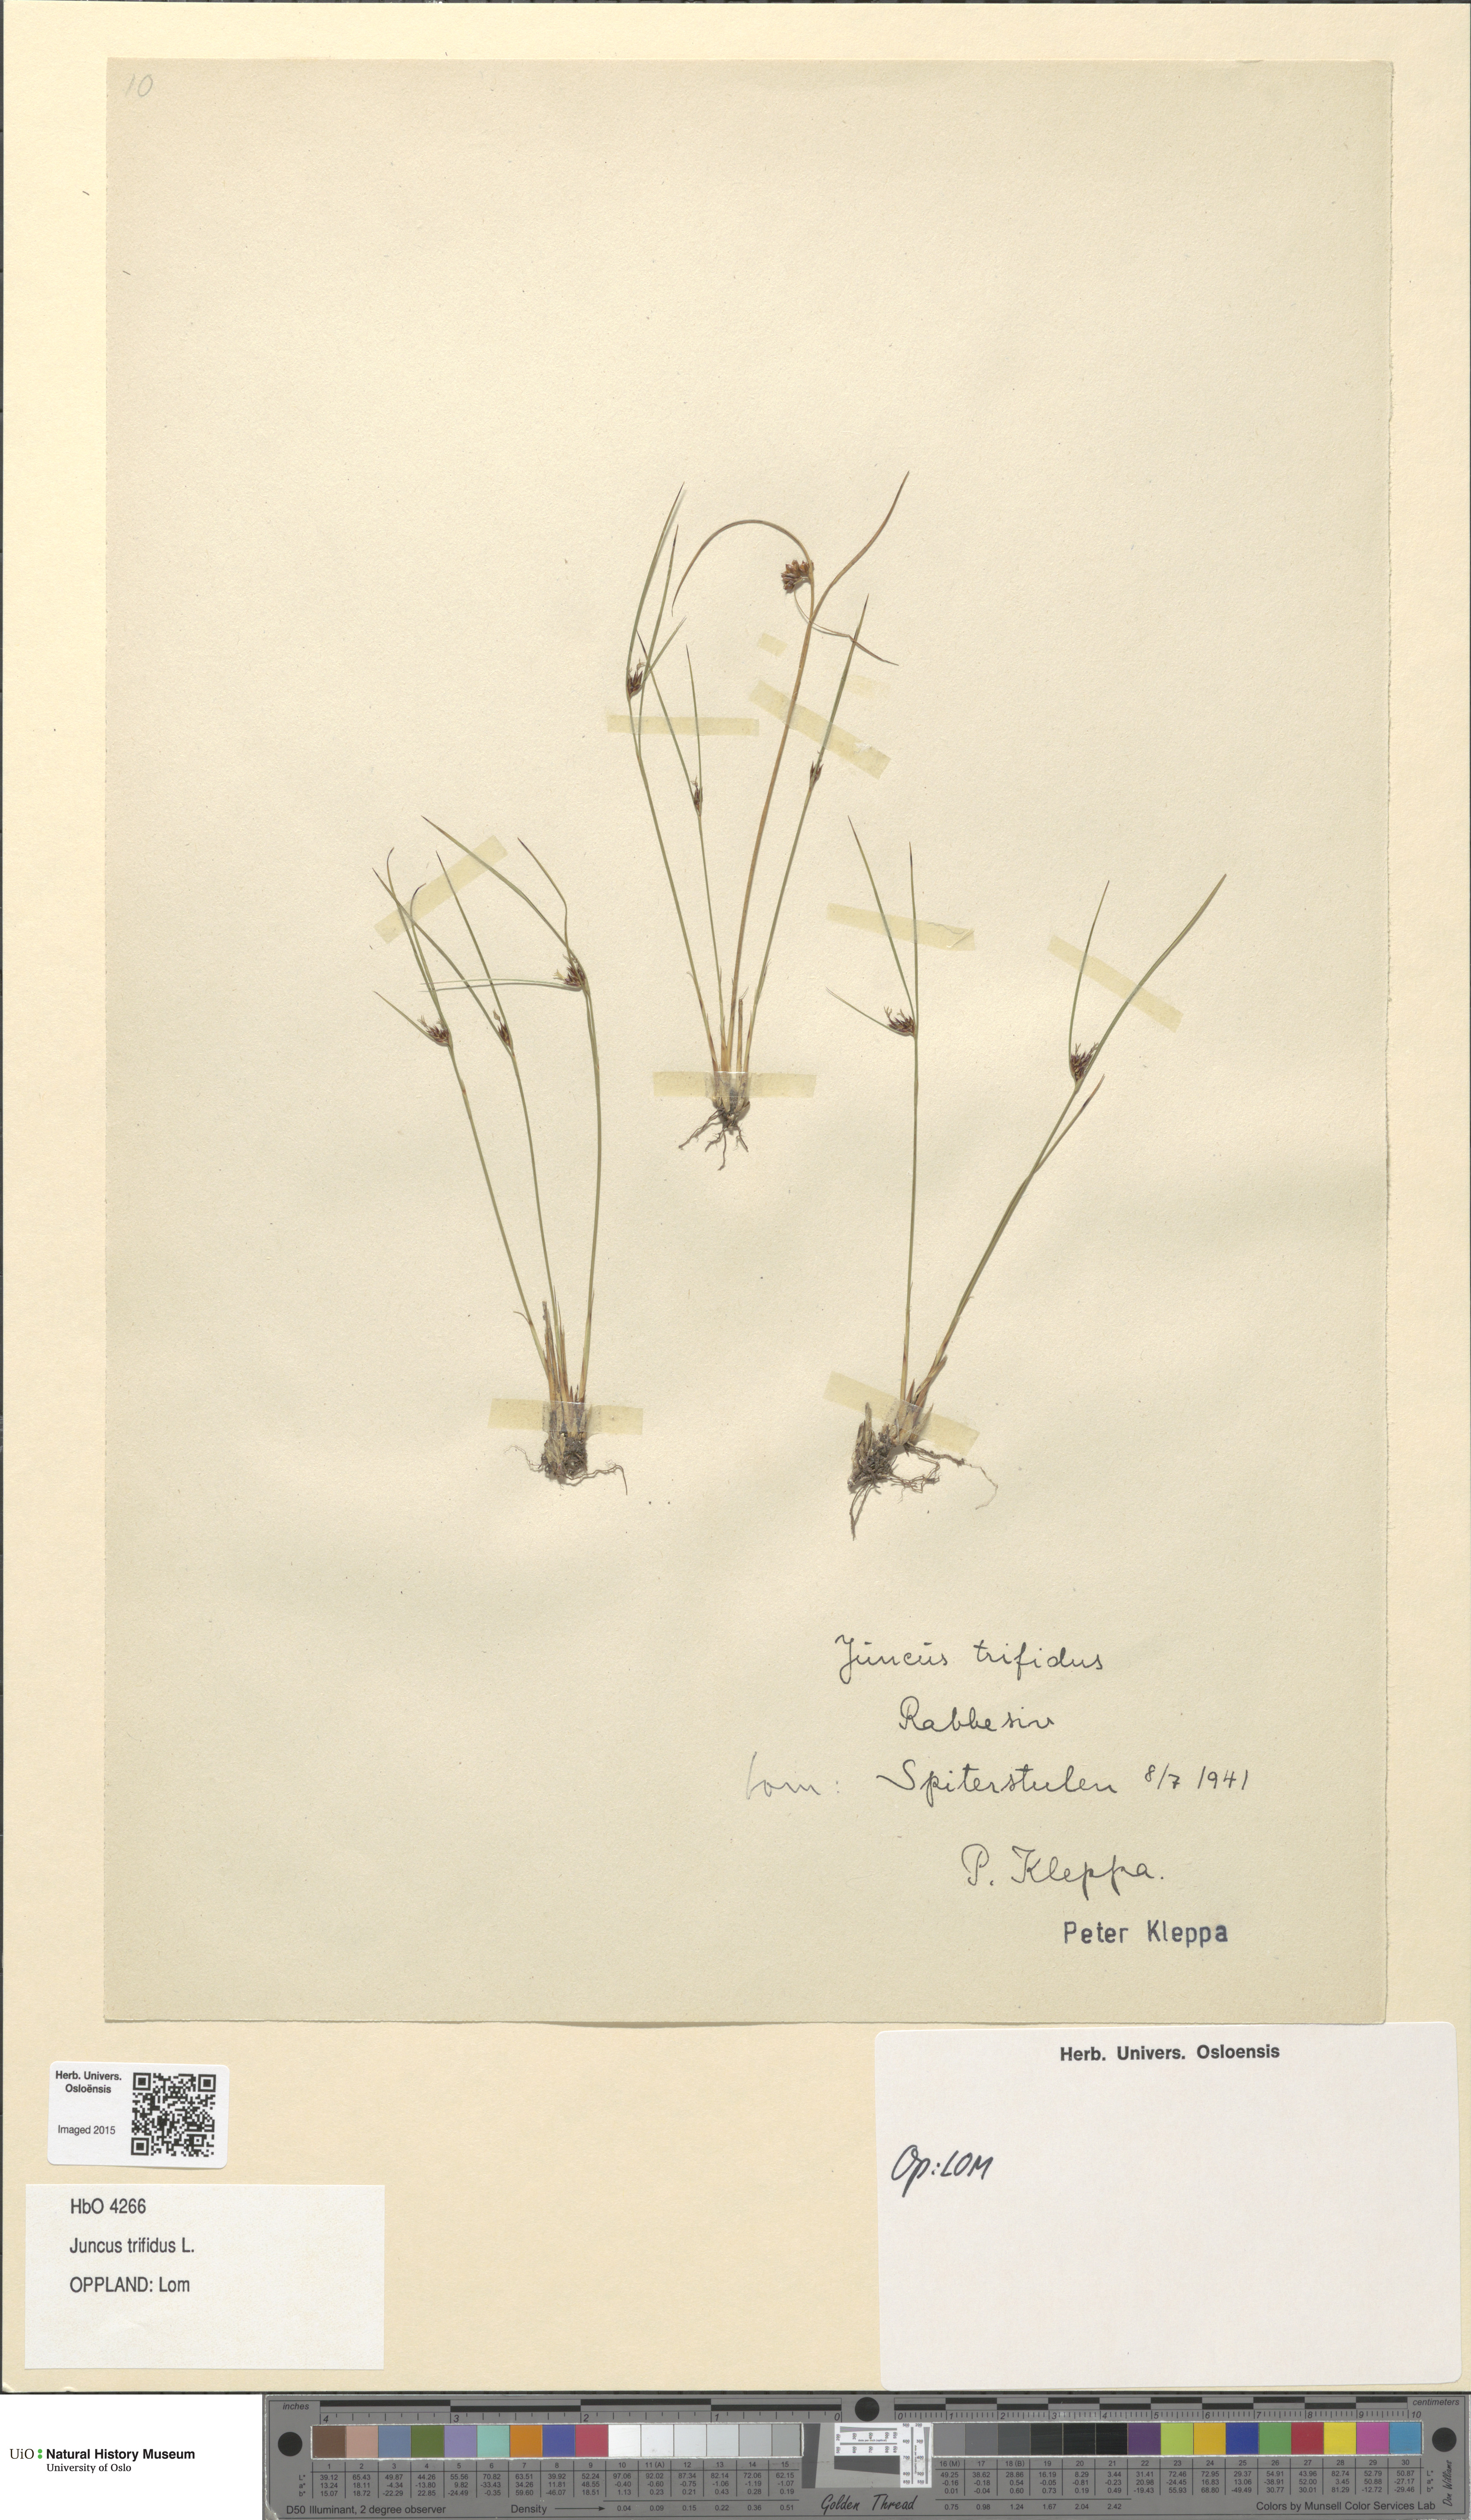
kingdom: Plantae
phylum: Tracheophyta
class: Liliopsida
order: Poales
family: Juncaceae
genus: Oreojuncus
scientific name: Oreojuncus trifidus
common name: Highland rush
